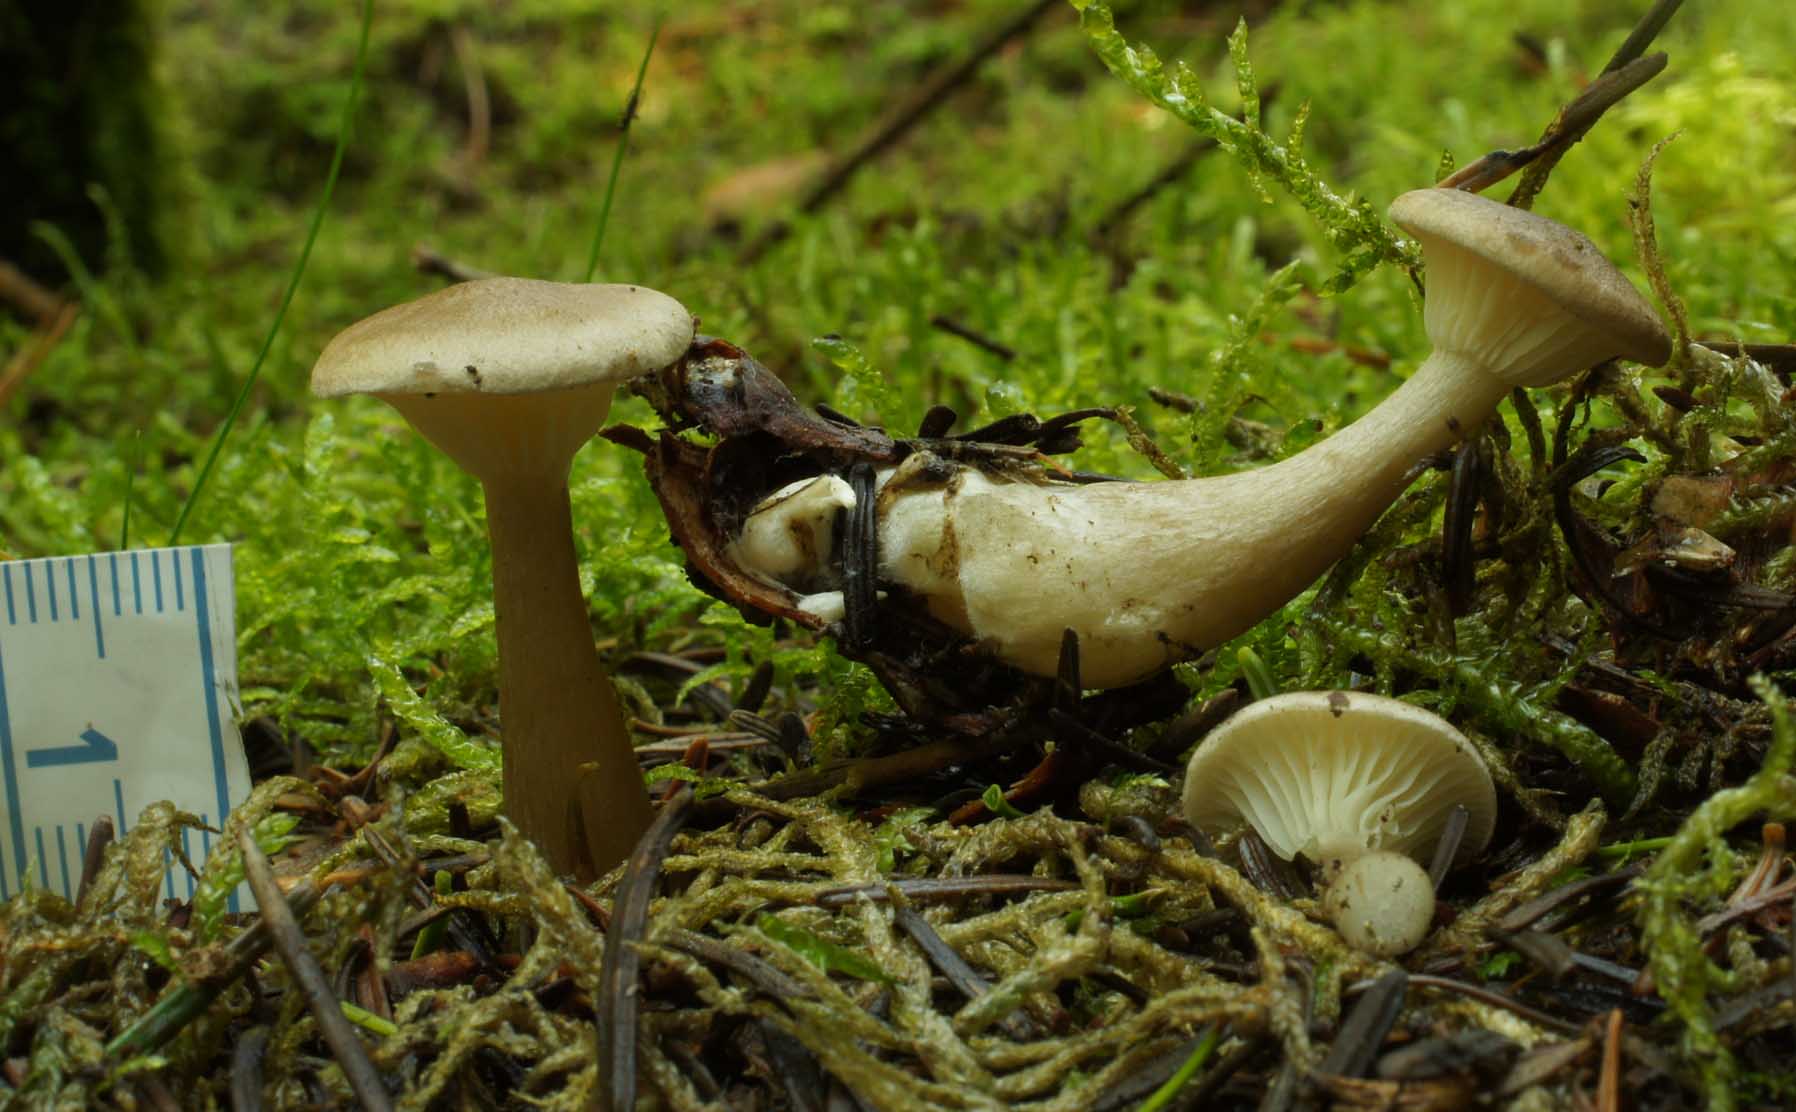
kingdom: Fungi
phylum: Basidiomycota
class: Agaricomycetes
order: Agaricales
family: Hygrophoraceae
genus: Ampulloclitocybe
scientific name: Ampulloclitocybe clavipes
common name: køllefod
